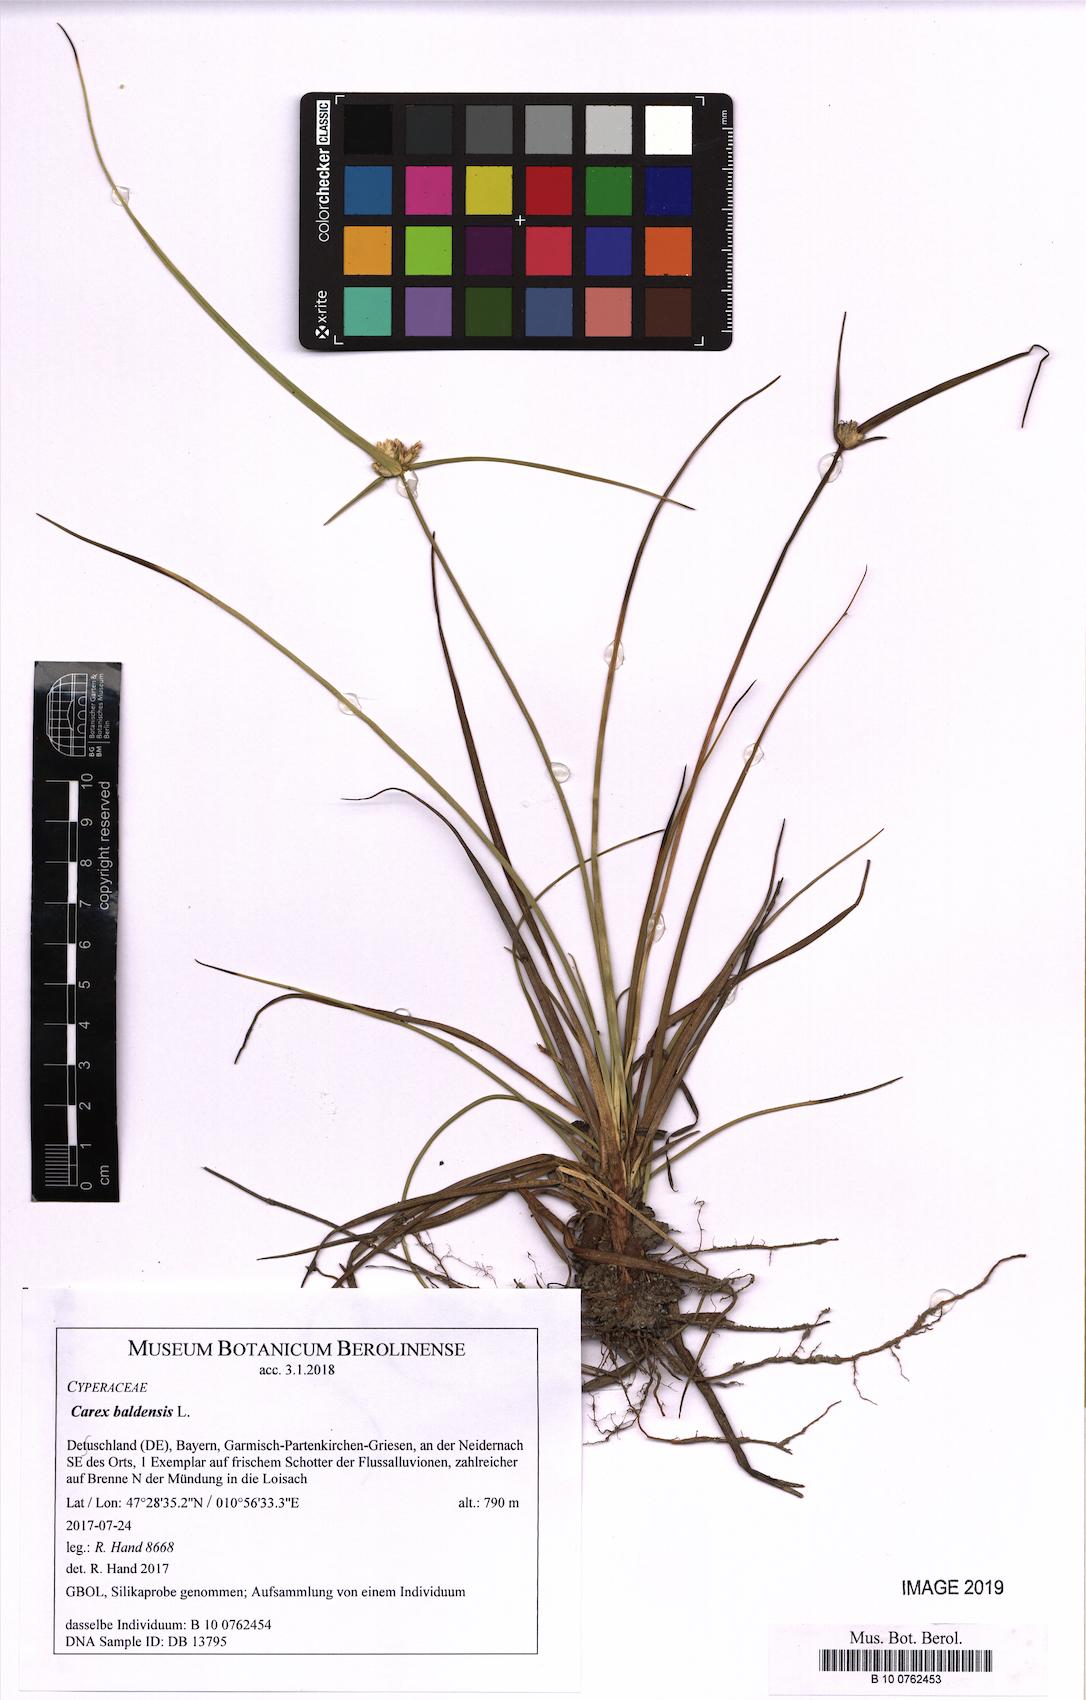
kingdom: Plantae
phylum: Tracheophyta
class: Liliopsida
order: Poales
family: Cyperaceae
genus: Carex
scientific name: Carex baldensis
